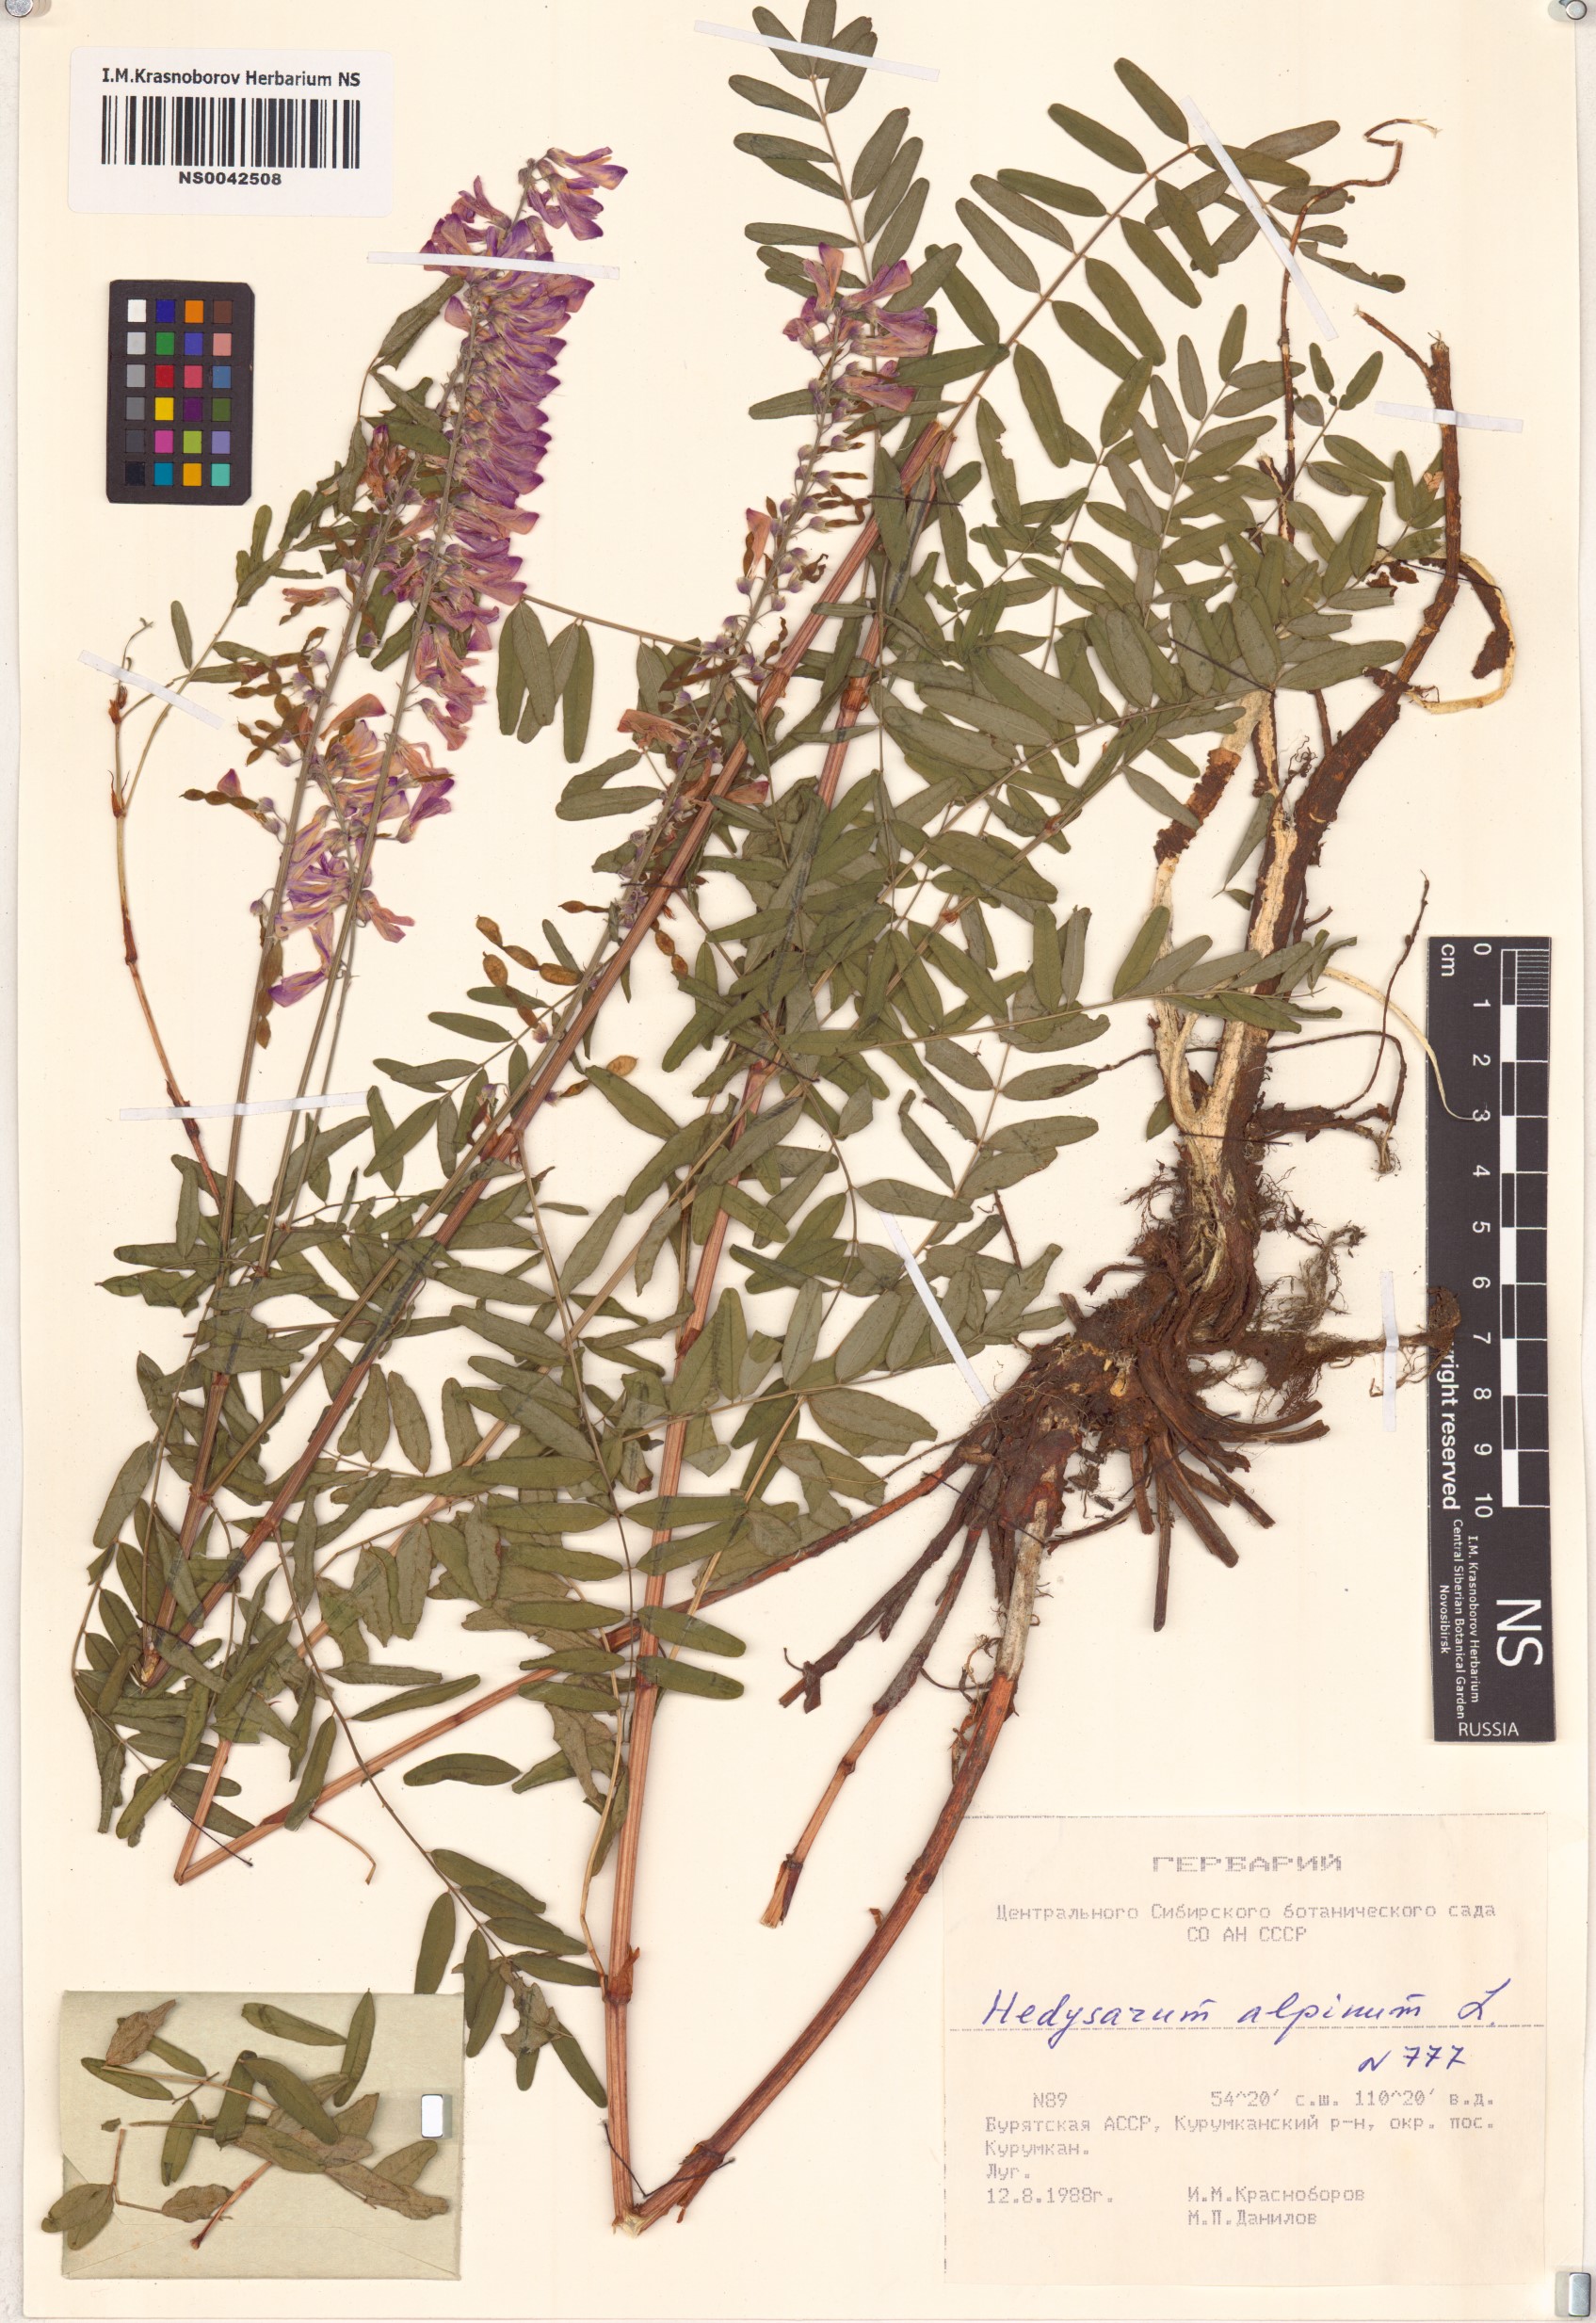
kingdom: Plantae
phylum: Tracheophyta
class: Magnoliopsida
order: Fabales
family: Fabaceae
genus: Hedysarum
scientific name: Hedysarum alpinum
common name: Alpine sweet-vetch
